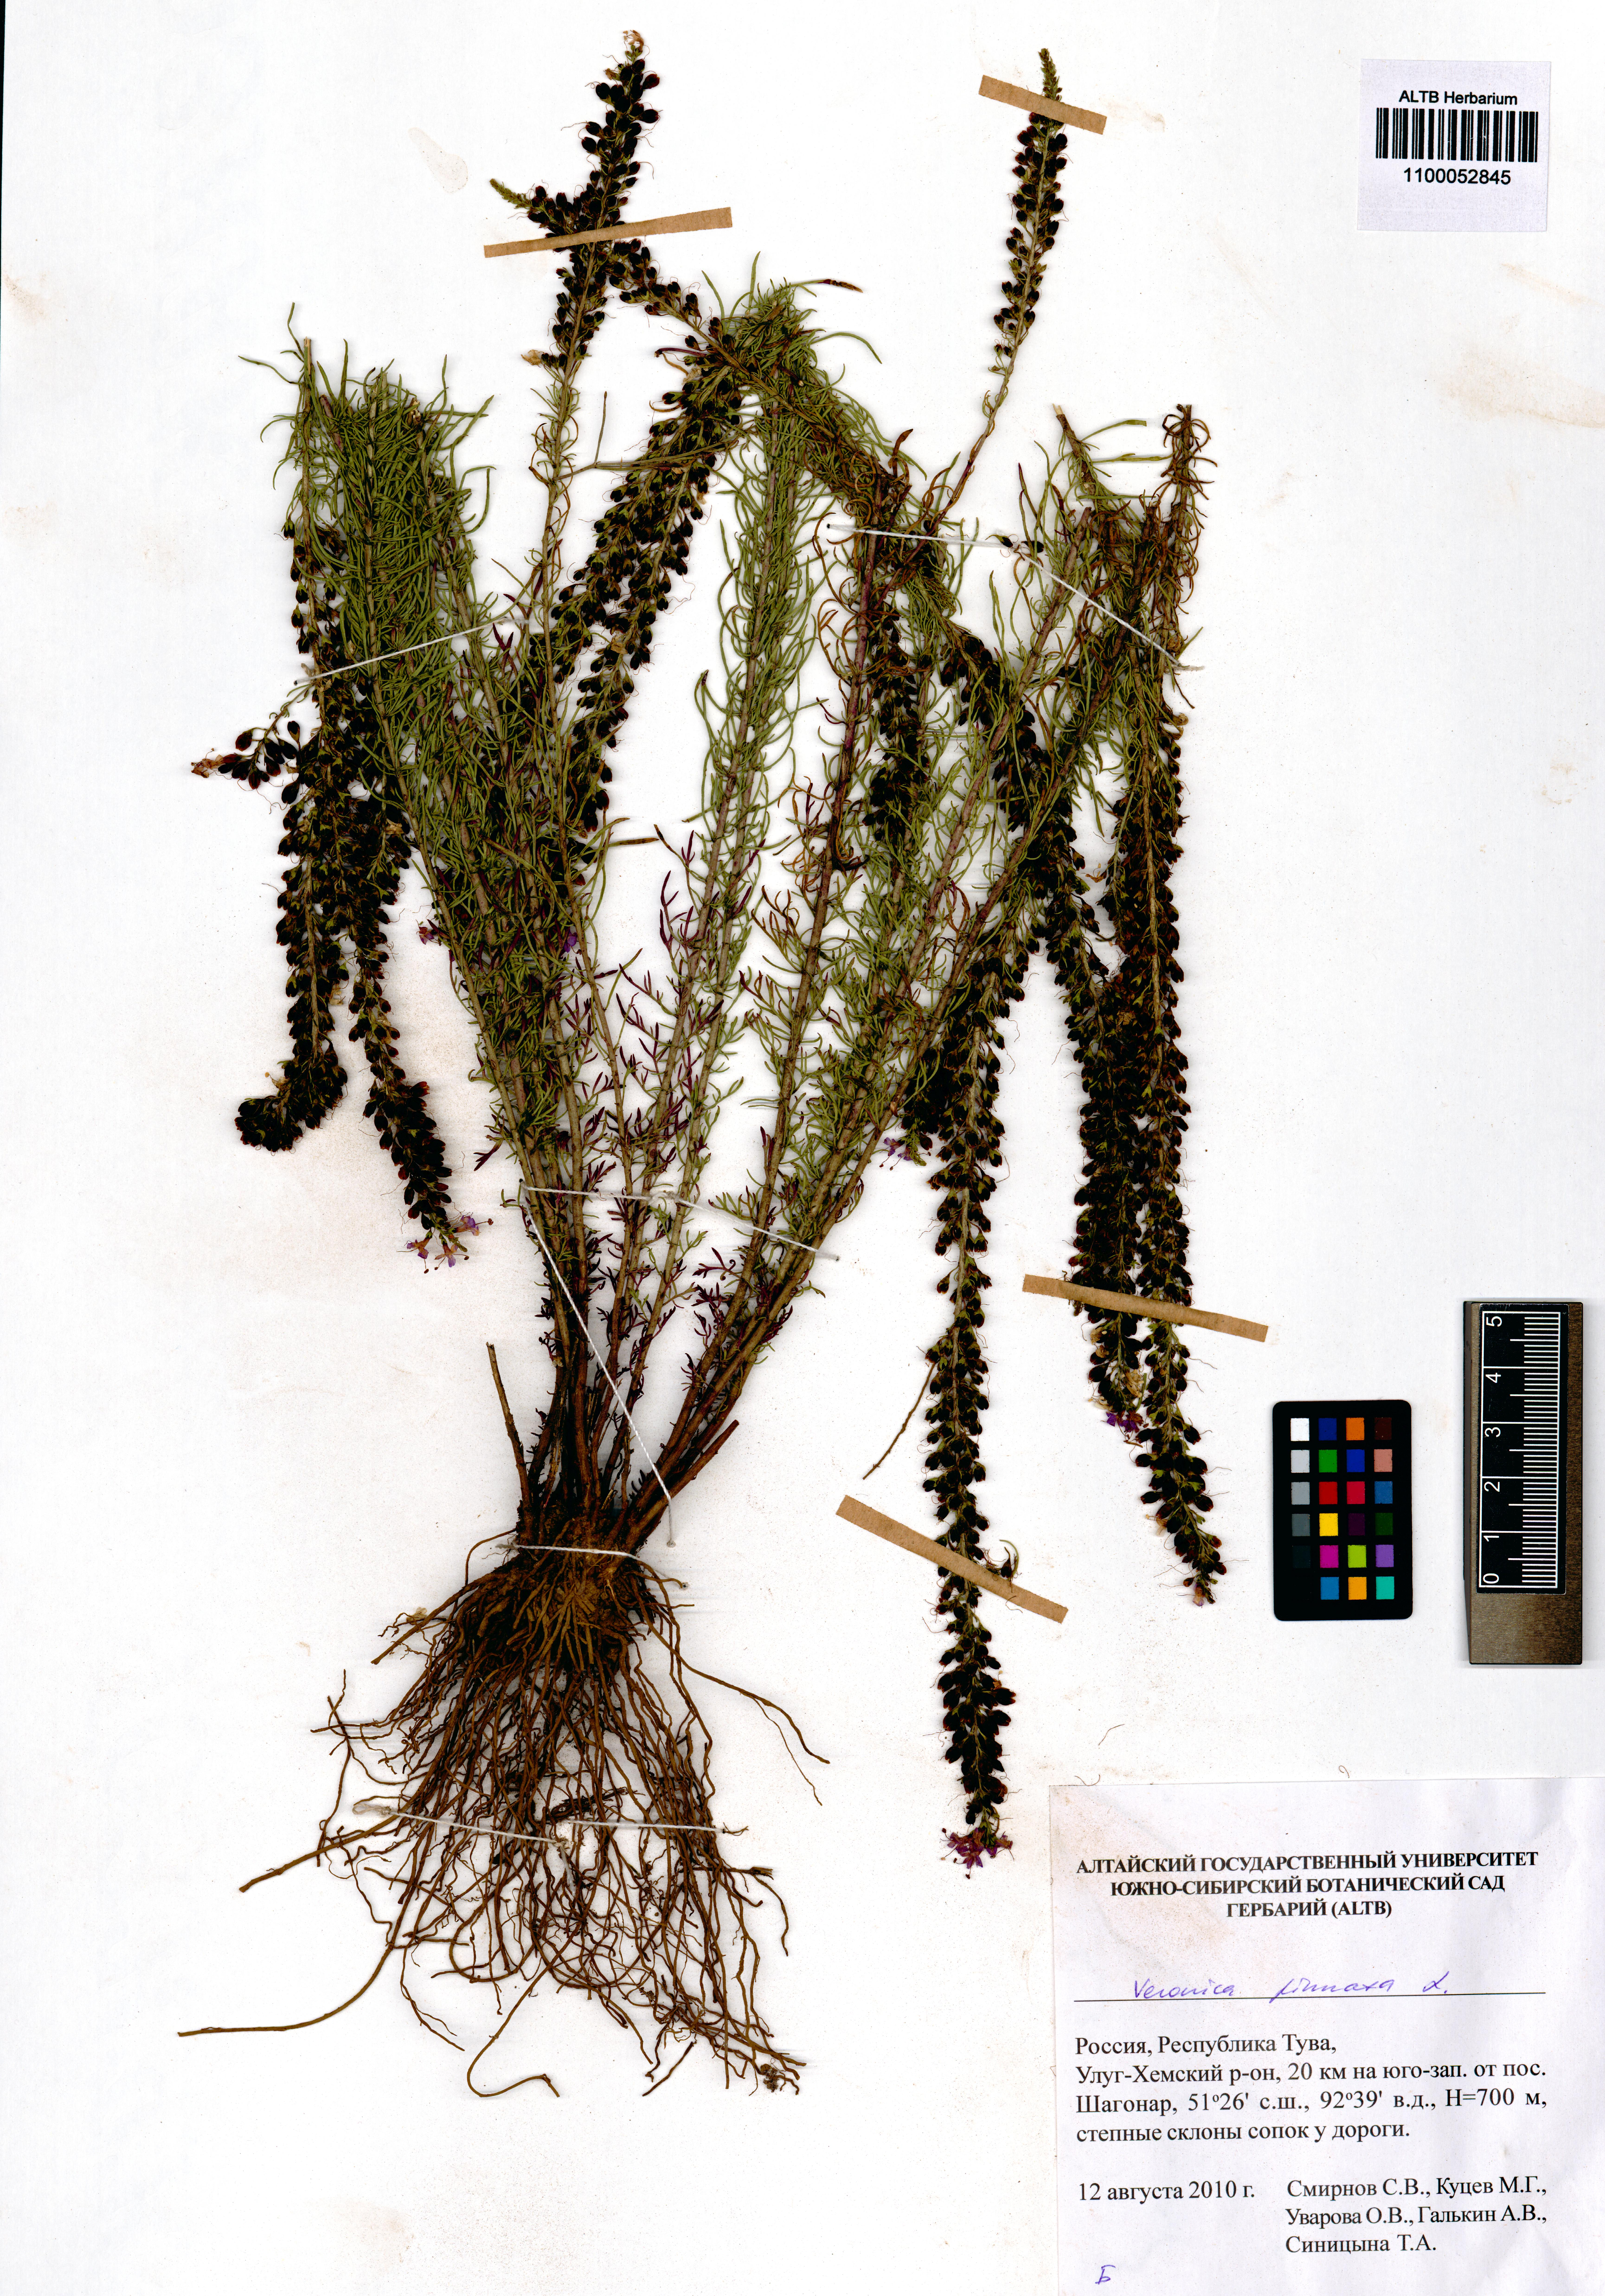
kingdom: Plantae
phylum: Tracheophyta
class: Magnoliopsida
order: Lamiales
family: Plantaginaceae
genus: Veronica
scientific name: Veronica pinnata
